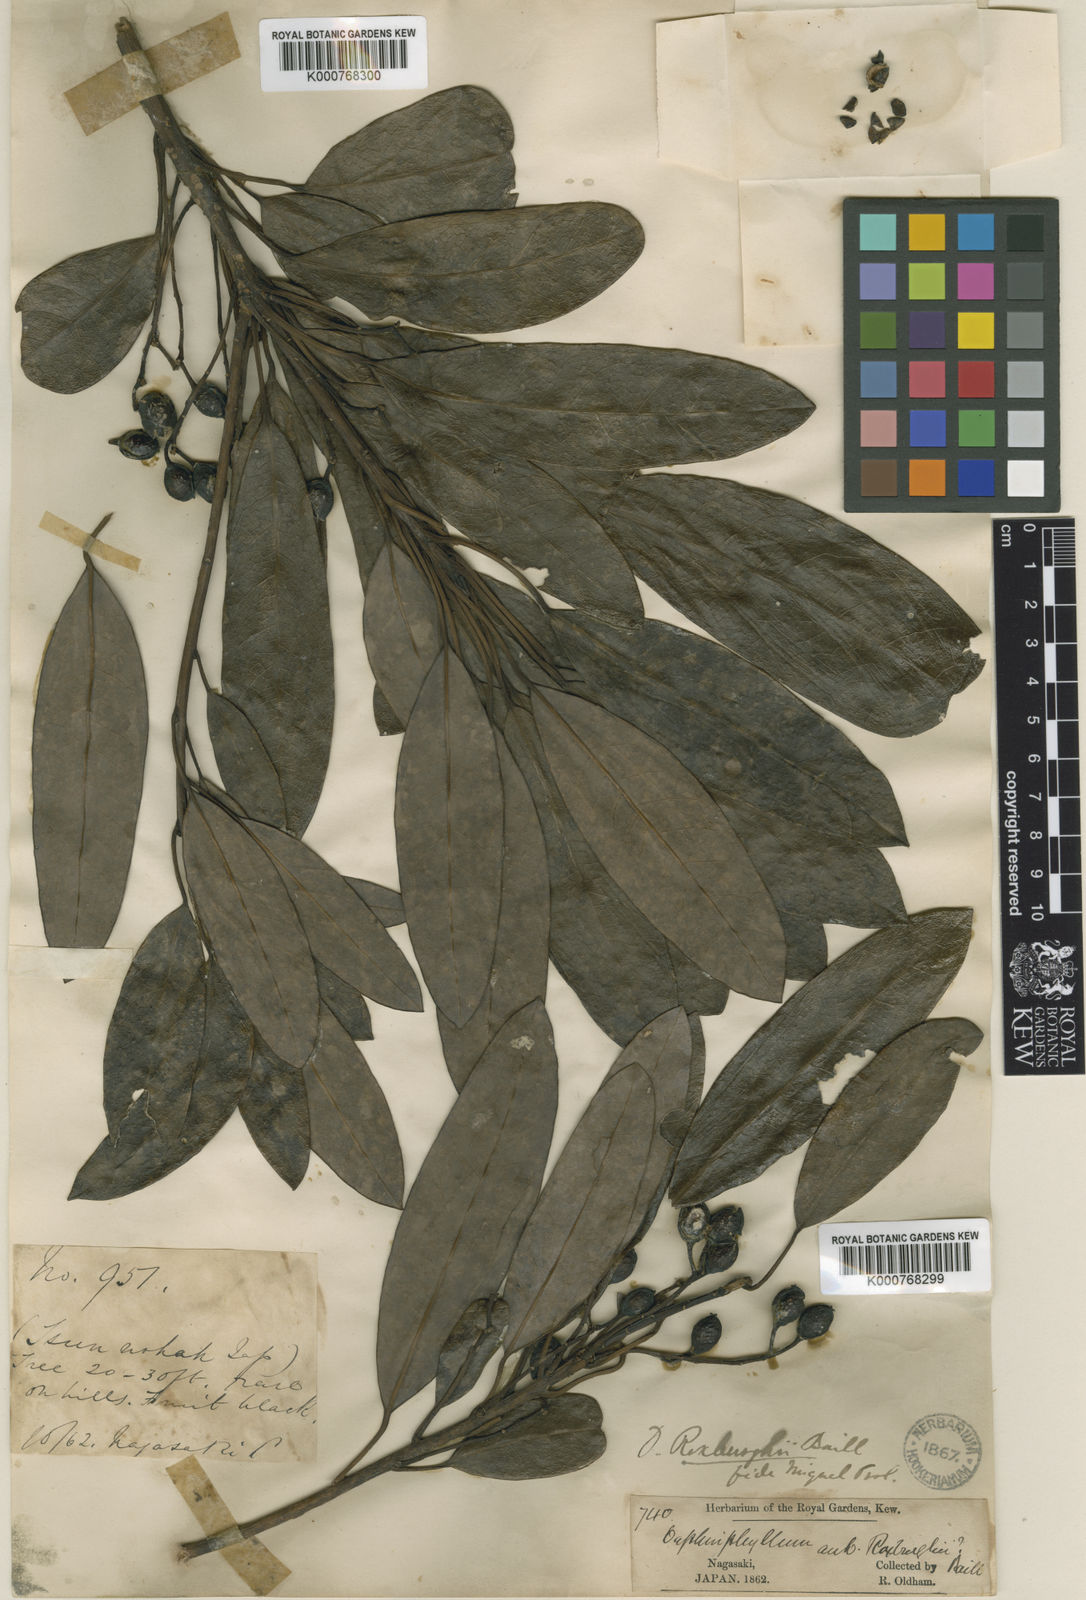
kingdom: Plantae
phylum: Tracheophyta
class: Magnoliopsida
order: Saxifragales
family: Daphniphyllaceae
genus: Daphniphyllum
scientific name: Daphniphyllum pentandrum
